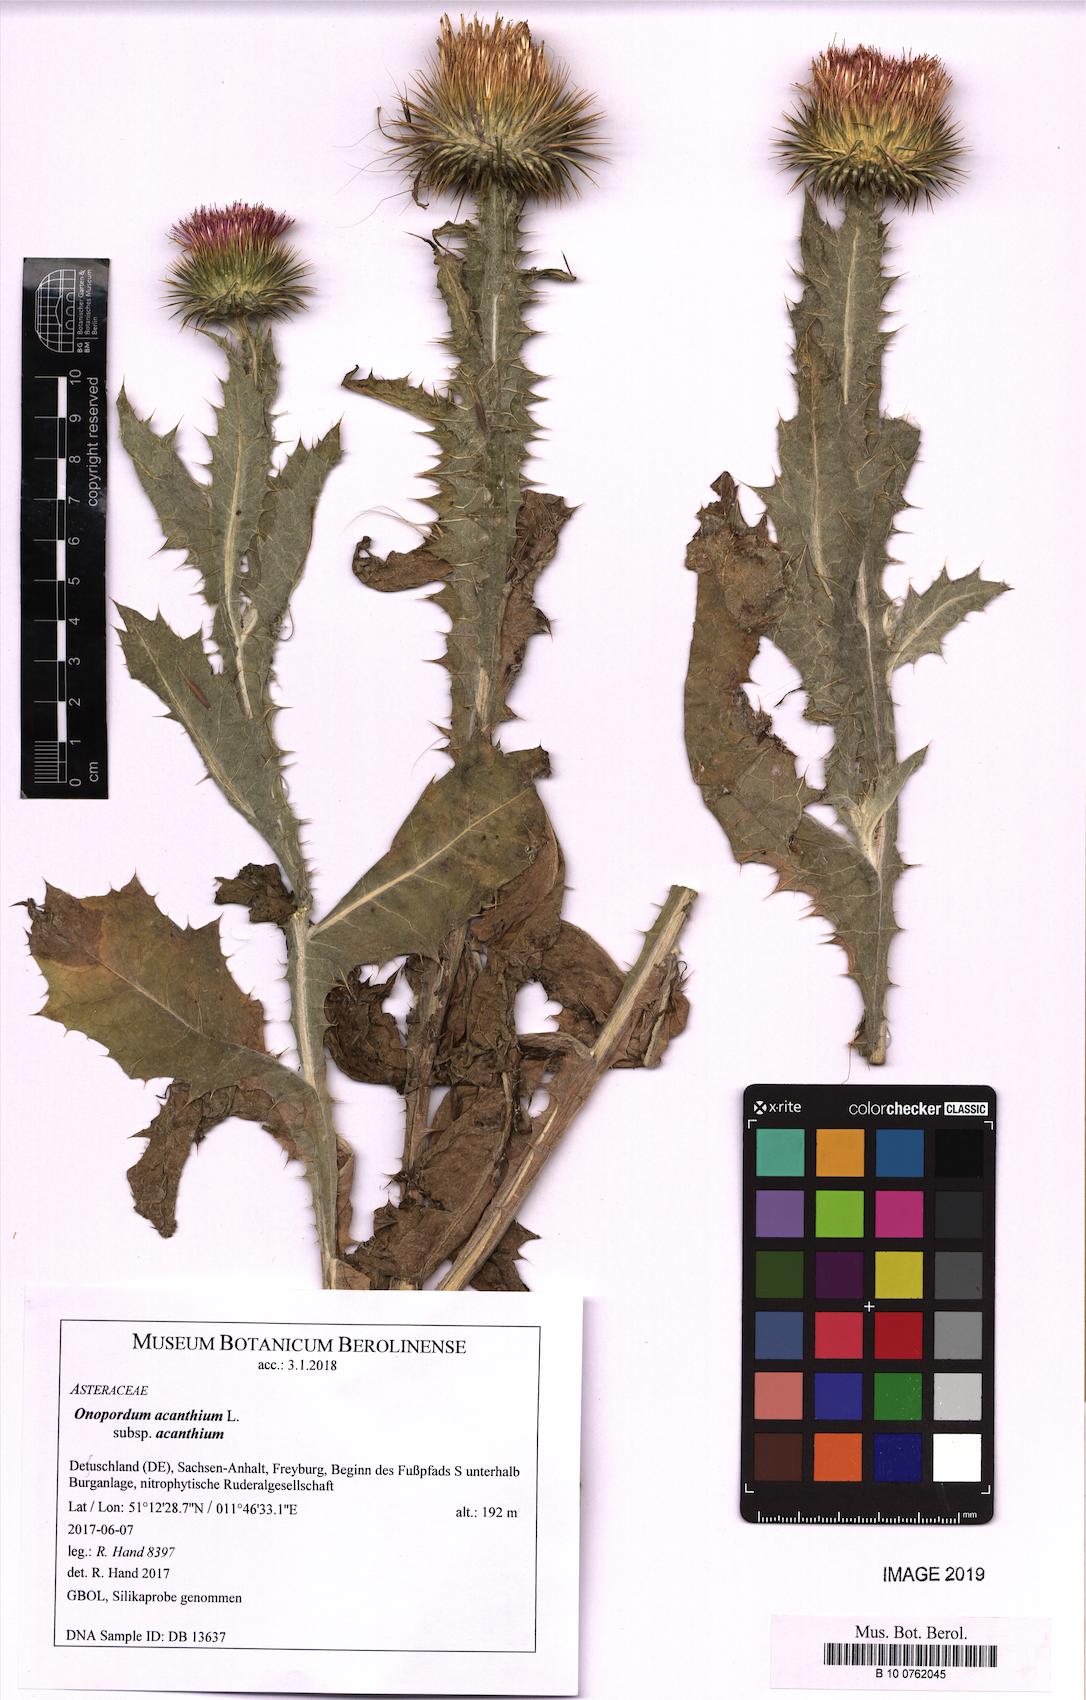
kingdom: Plantae
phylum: Tracheophyta
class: Magnoliopsida
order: Asterales
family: Asteraceae
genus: Onopordum
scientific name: Onopordum acanthium
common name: Scotch thistle
